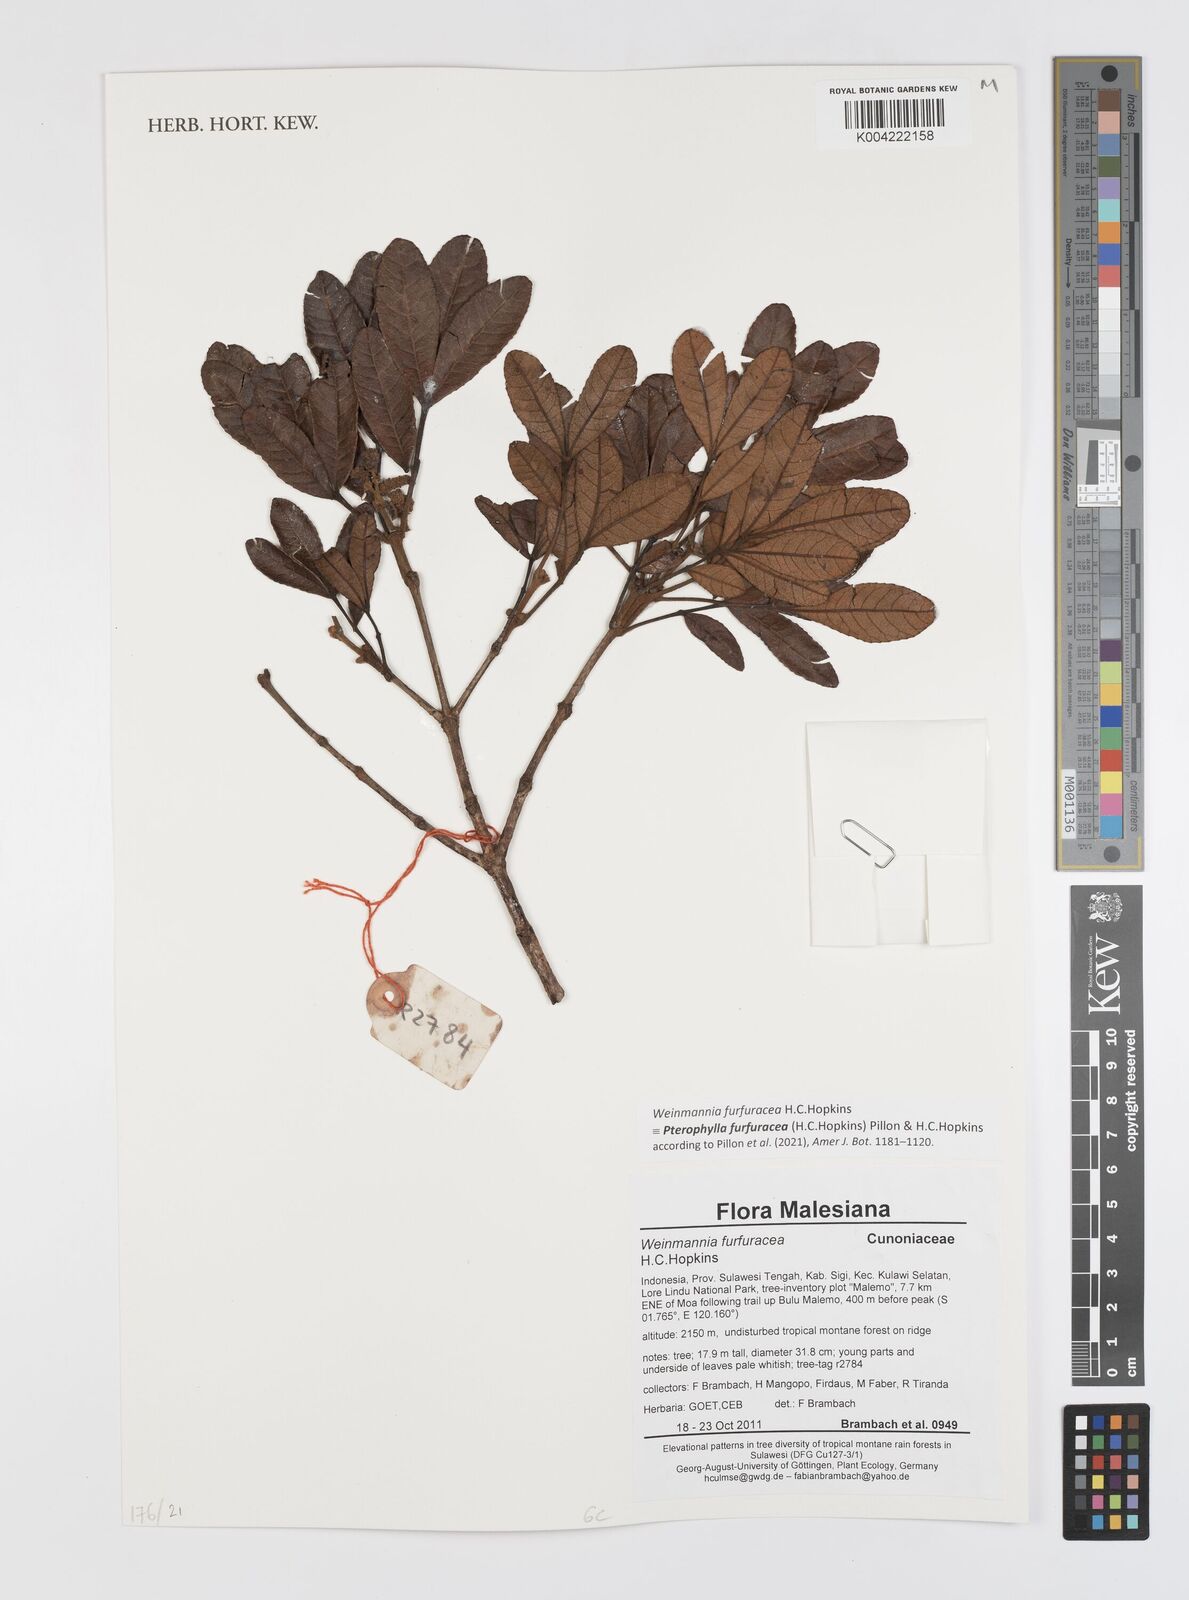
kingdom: Plantae
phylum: Tracheophyta
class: Magnoliopsida
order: Oxalidales
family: Cunoniaceae
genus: Pterophylla
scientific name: Pterophylla furfuracea
